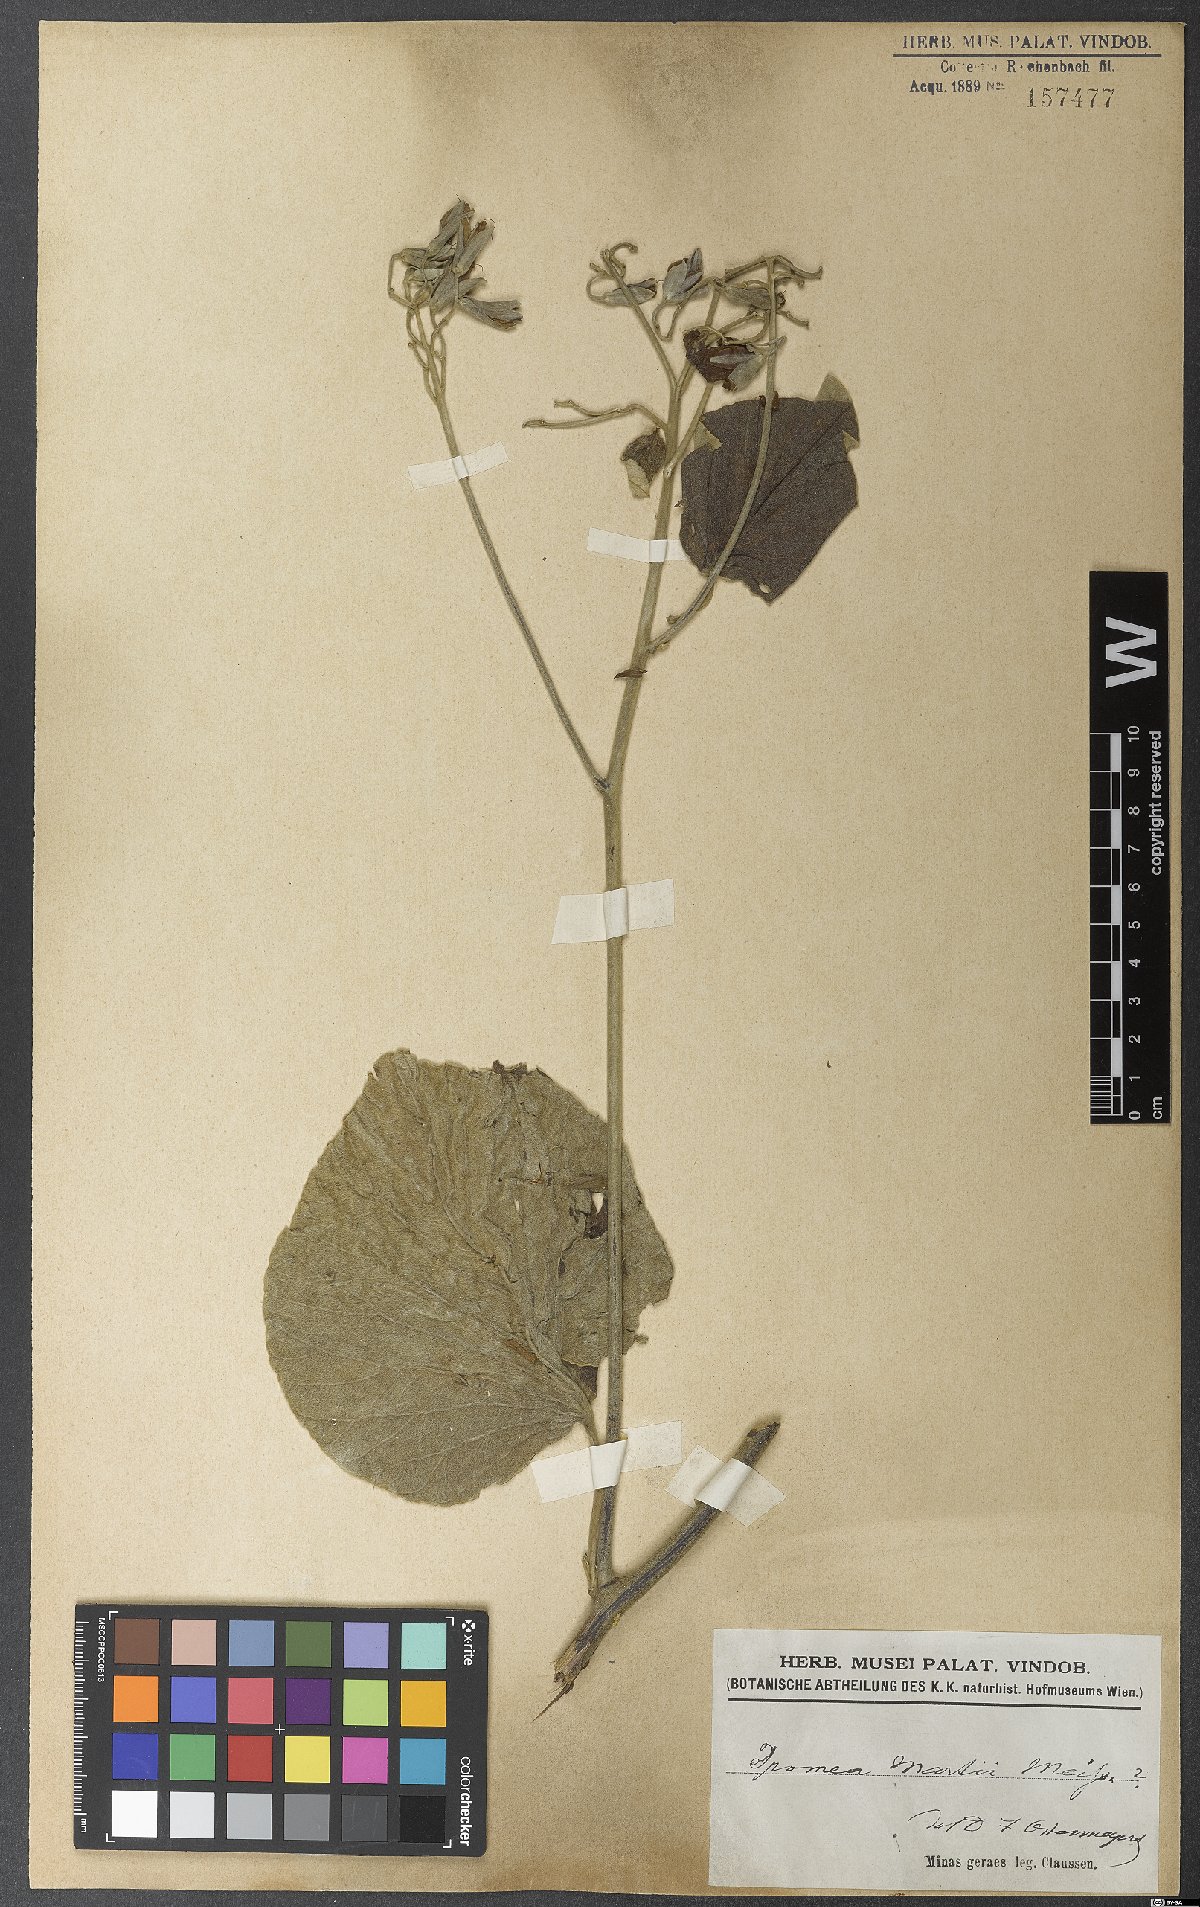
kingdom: Plantae
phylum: Tracheophyta
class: Magnoliopsida
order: Solanales
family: Convolvulaceae
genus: Ipomoea
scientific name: Ipomoea sericosepala
